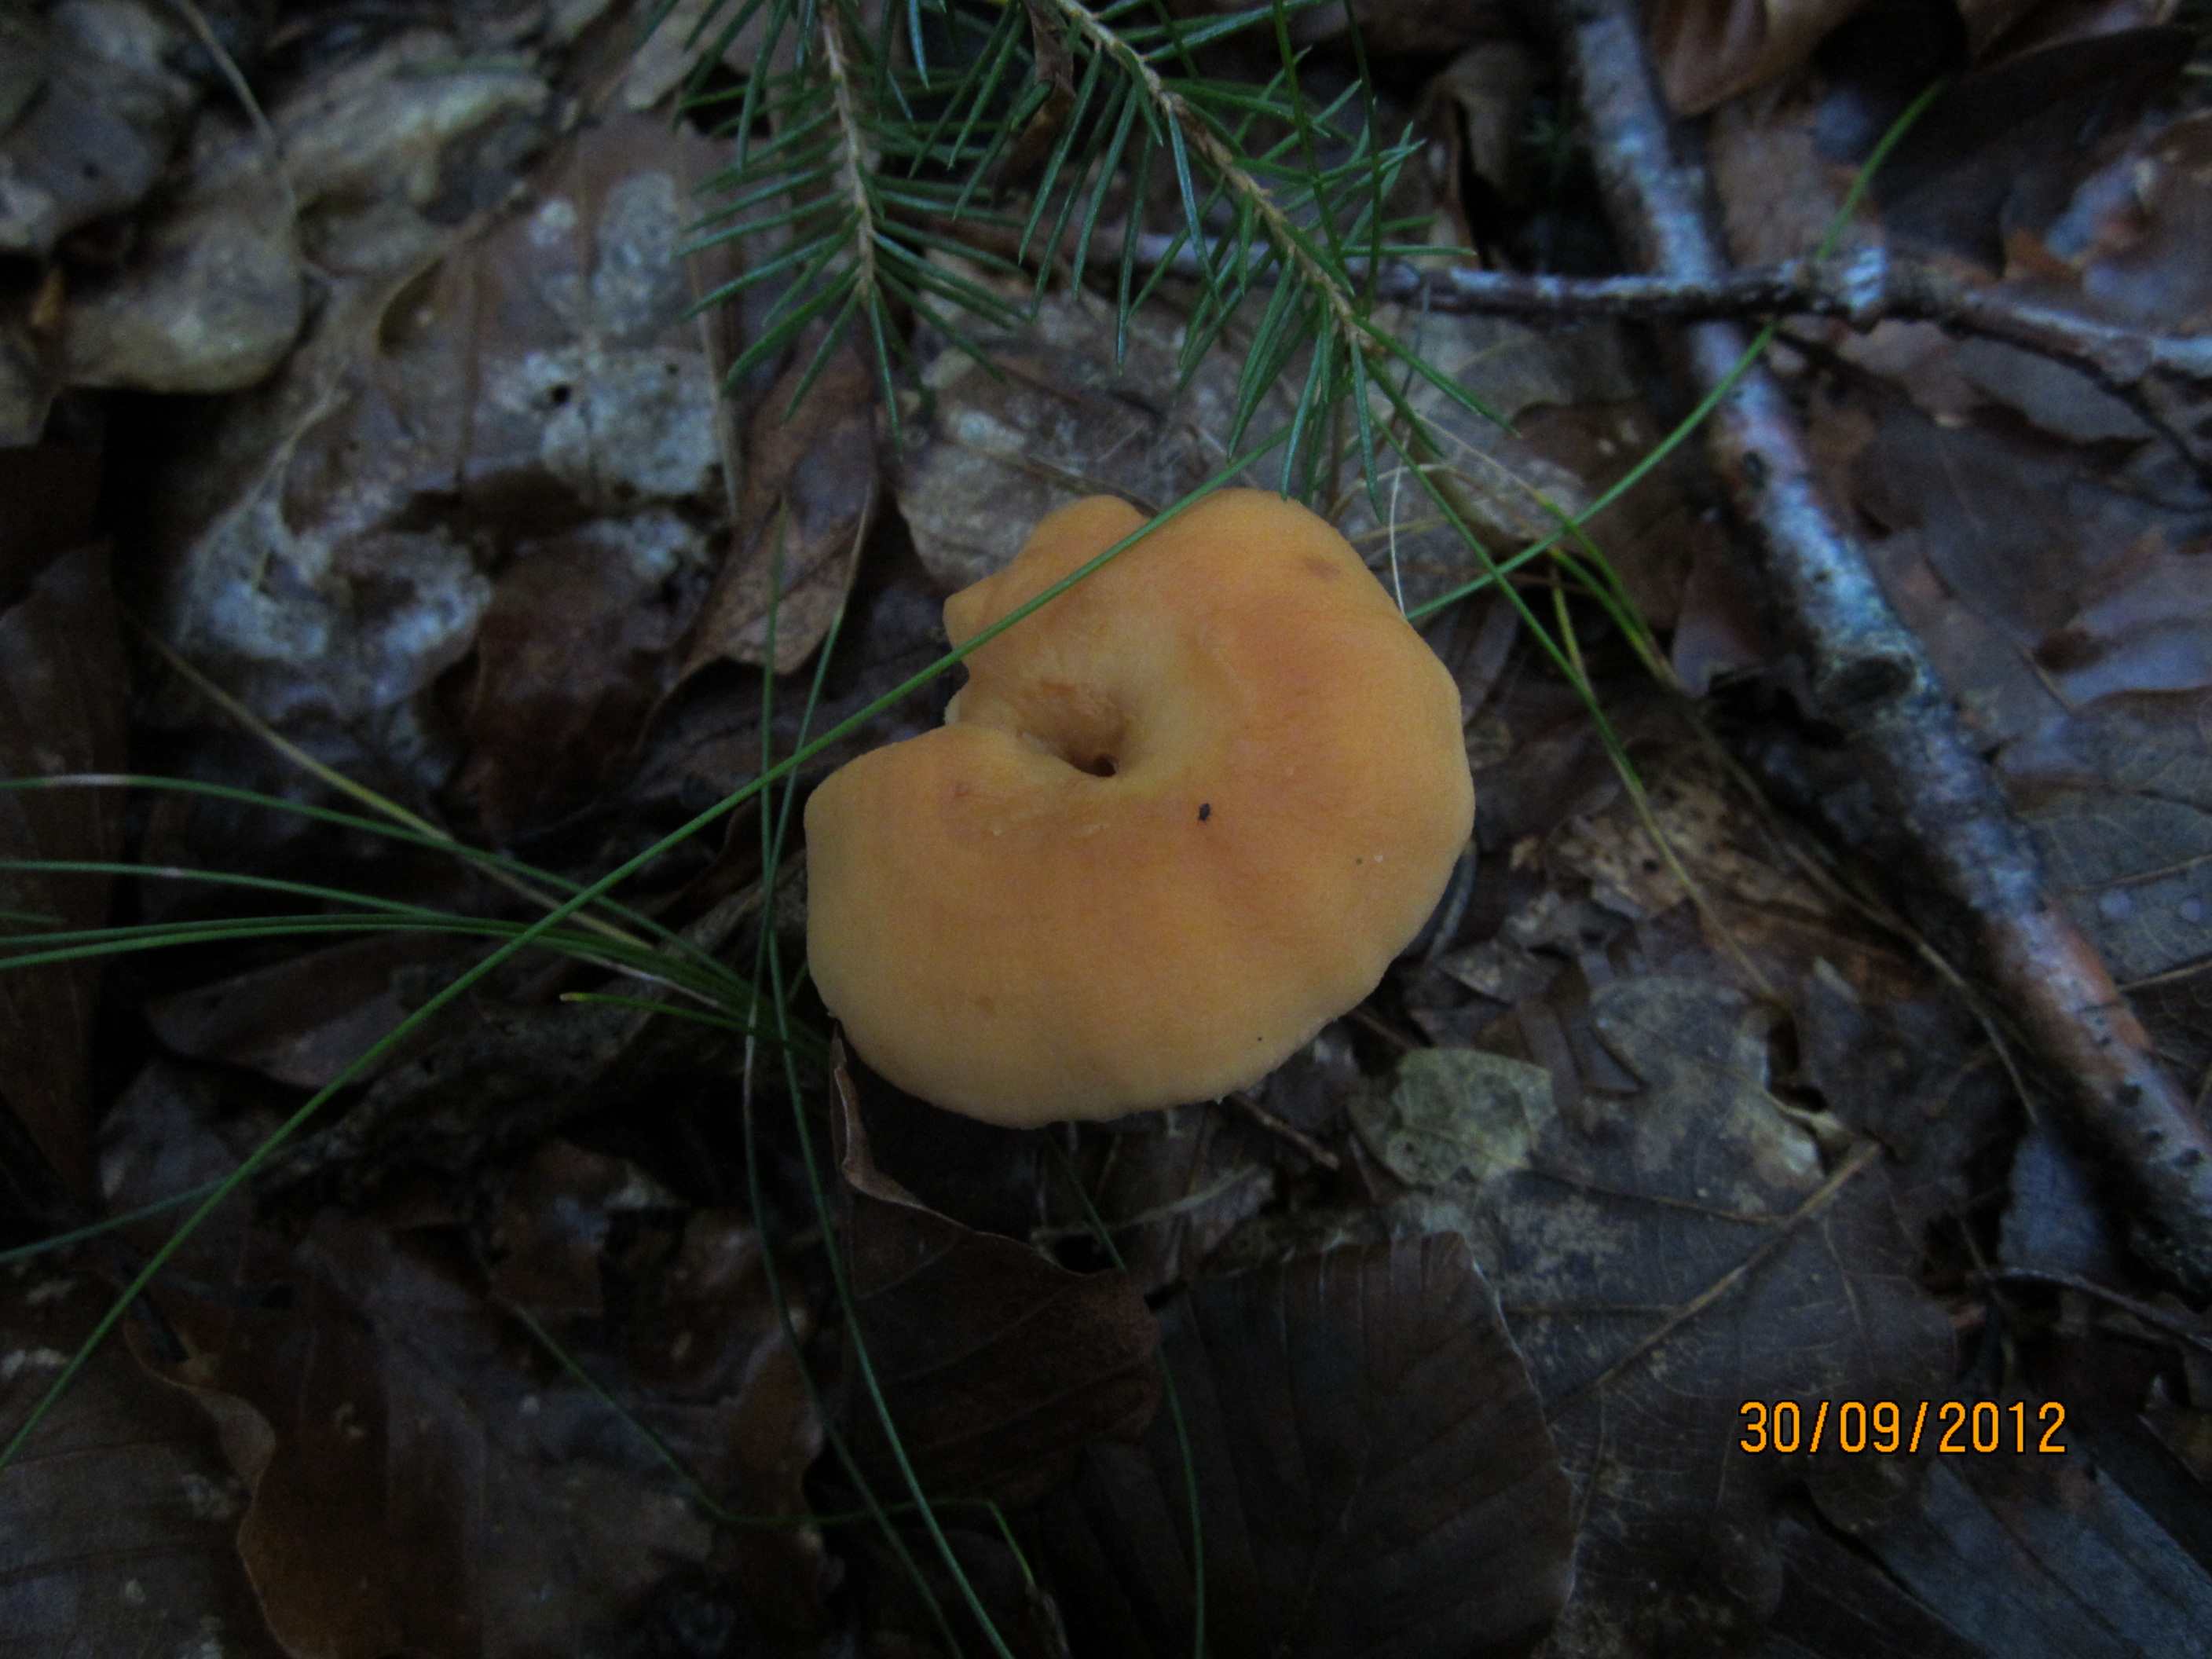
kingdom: Fungi
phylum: Basidiomycota
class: Agaricomycetes
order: Cantharellales
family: Hydnaceae
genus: Hydnum
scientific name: Hydnum rufescens
